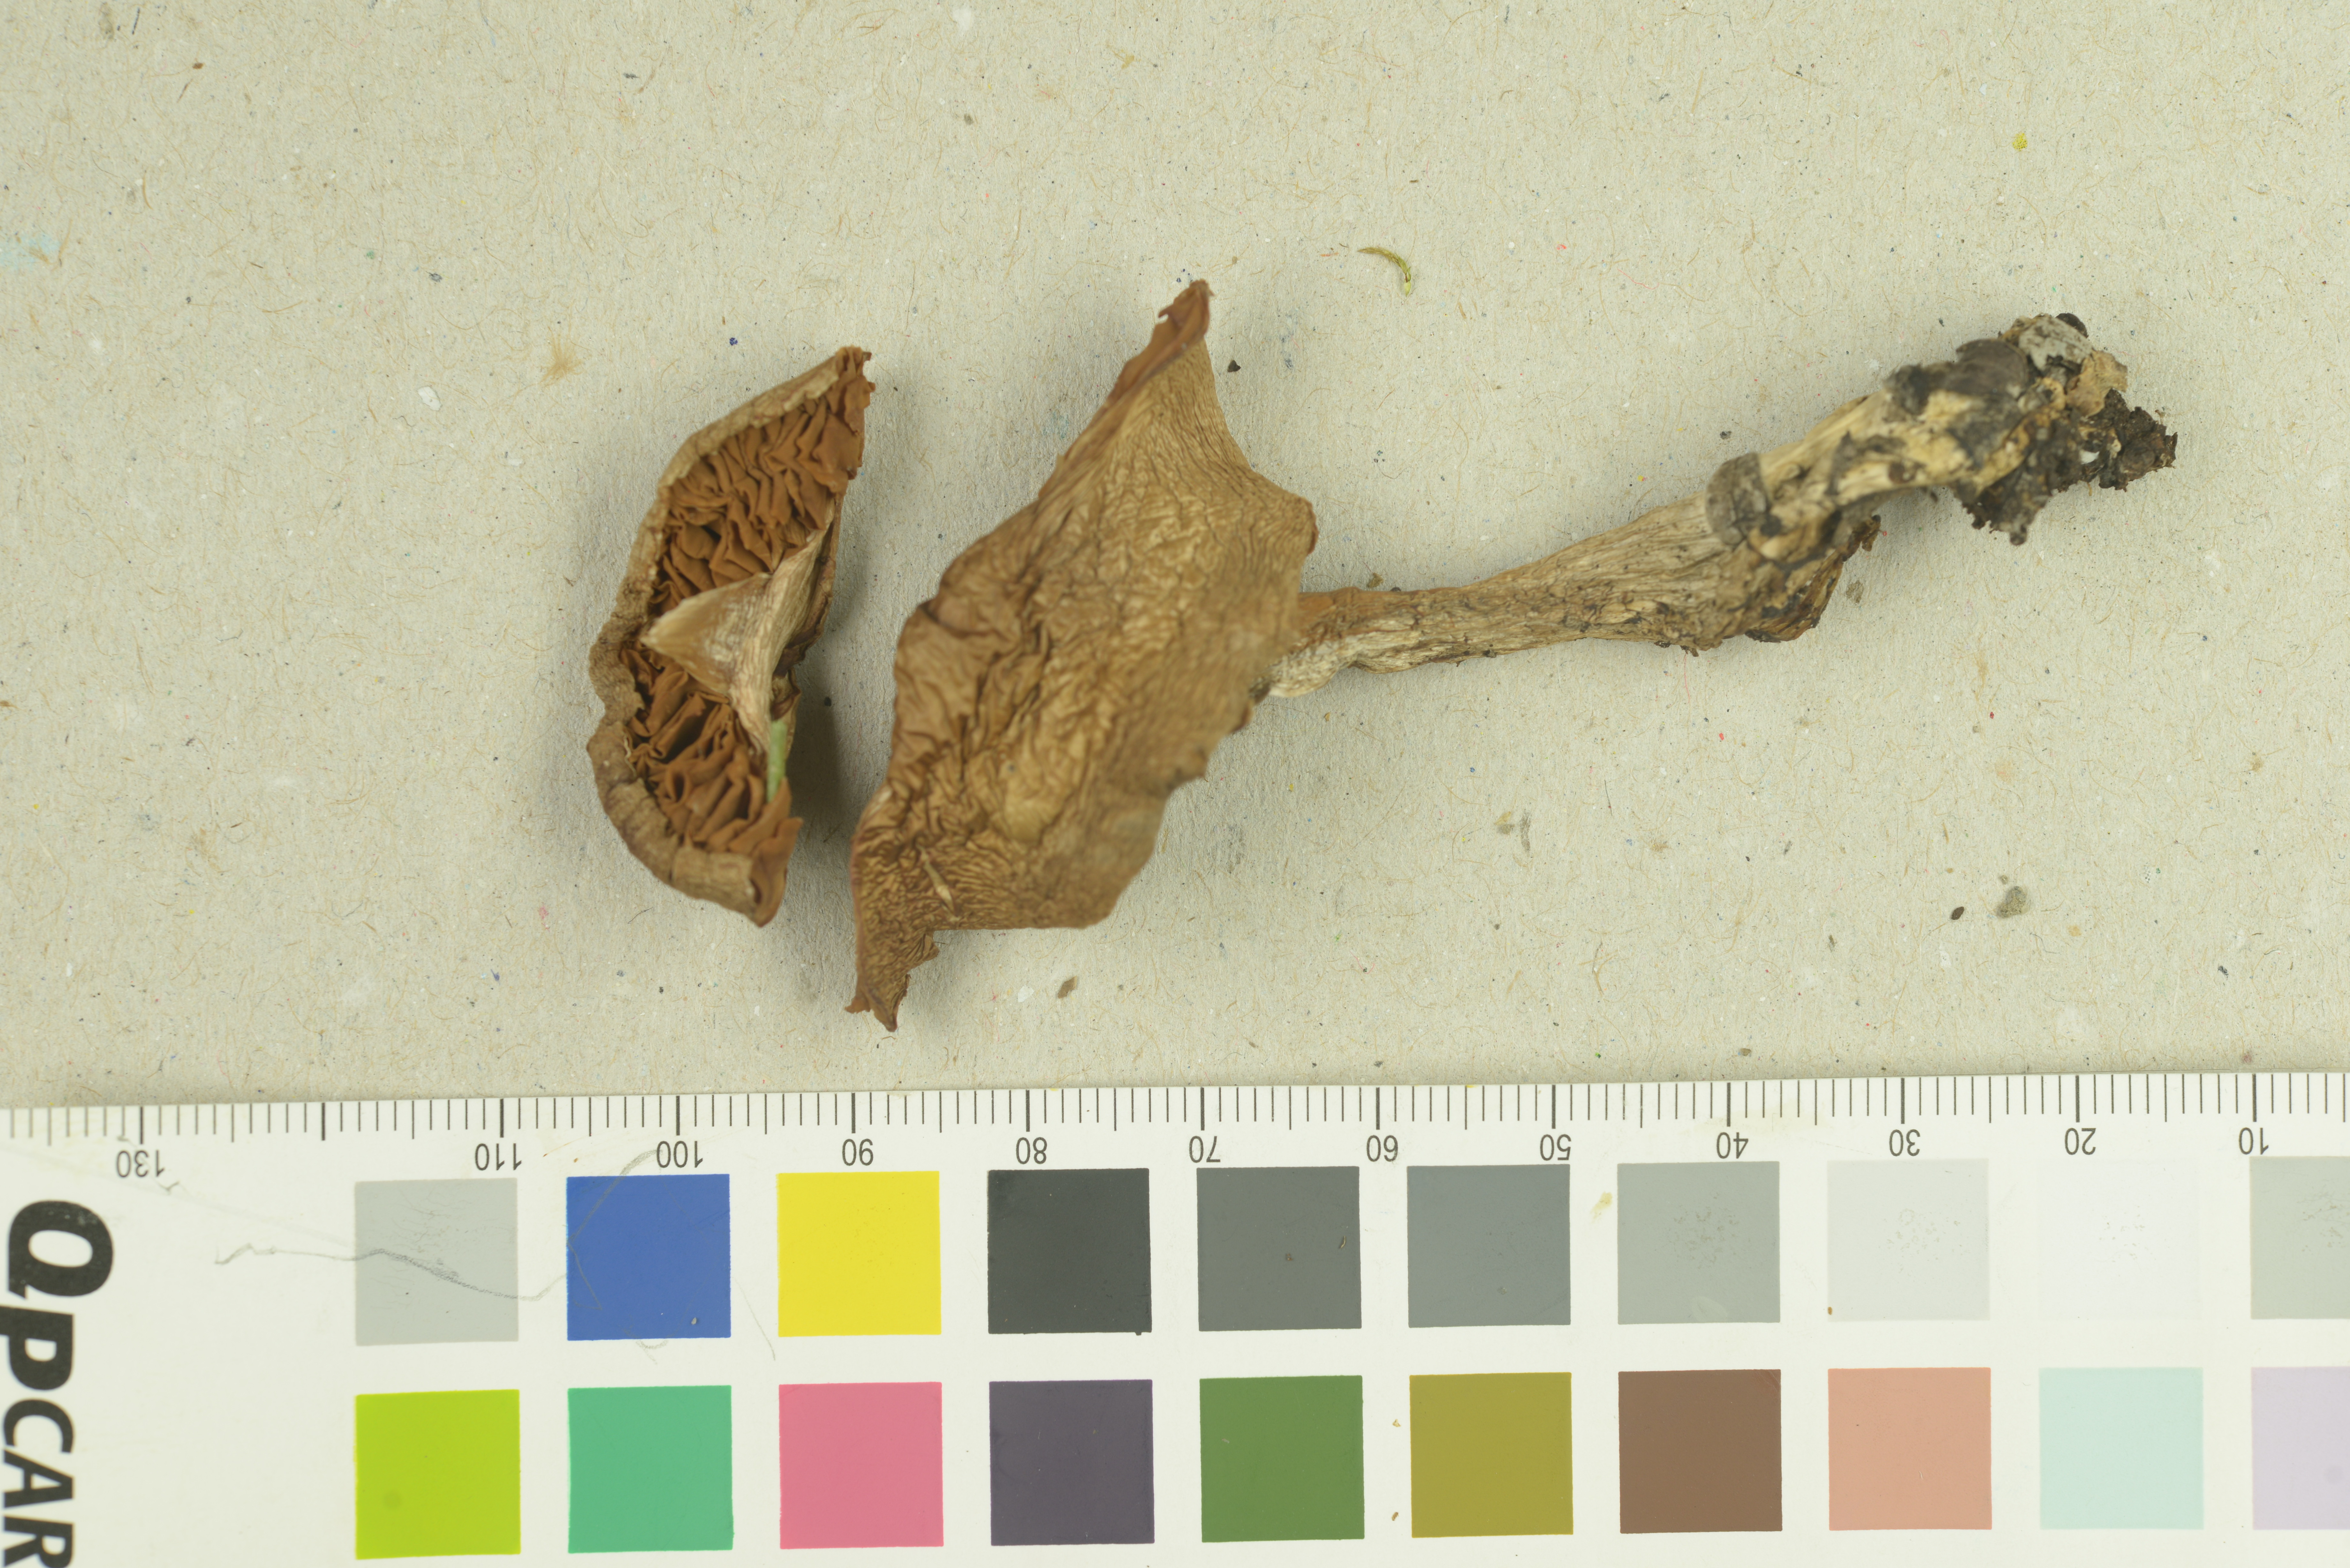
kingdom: Fungi
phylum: Basidiomycota
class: Agaricomycetes
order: Agaricales
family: Cortinariaceae
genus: Cortinarius
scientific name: Cortinarius armeniacus
